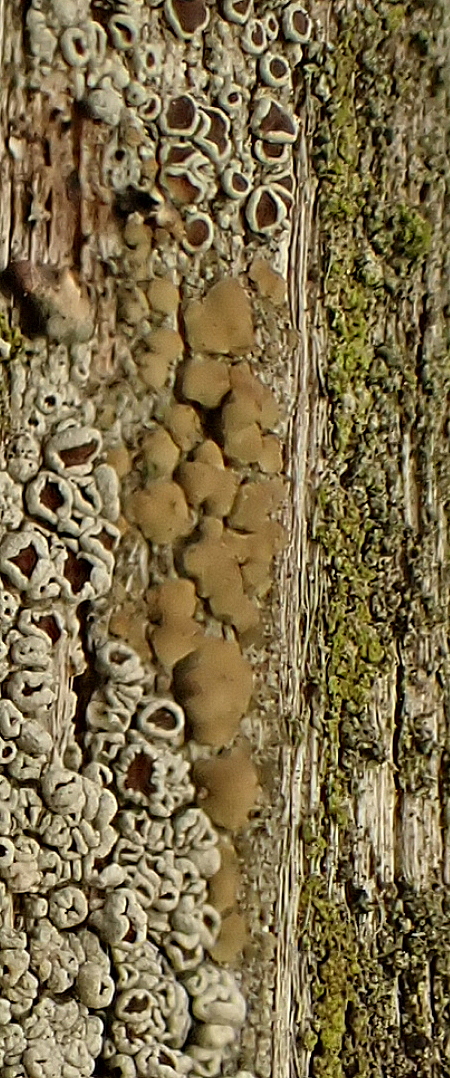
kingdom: Fungi
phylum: Ascomycota
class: Lecanoromycetes
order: Lecanorales
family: Lecanoraceae
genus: Lecanora
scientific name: Lecanora symmicta
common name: kvist-kantskivelav
